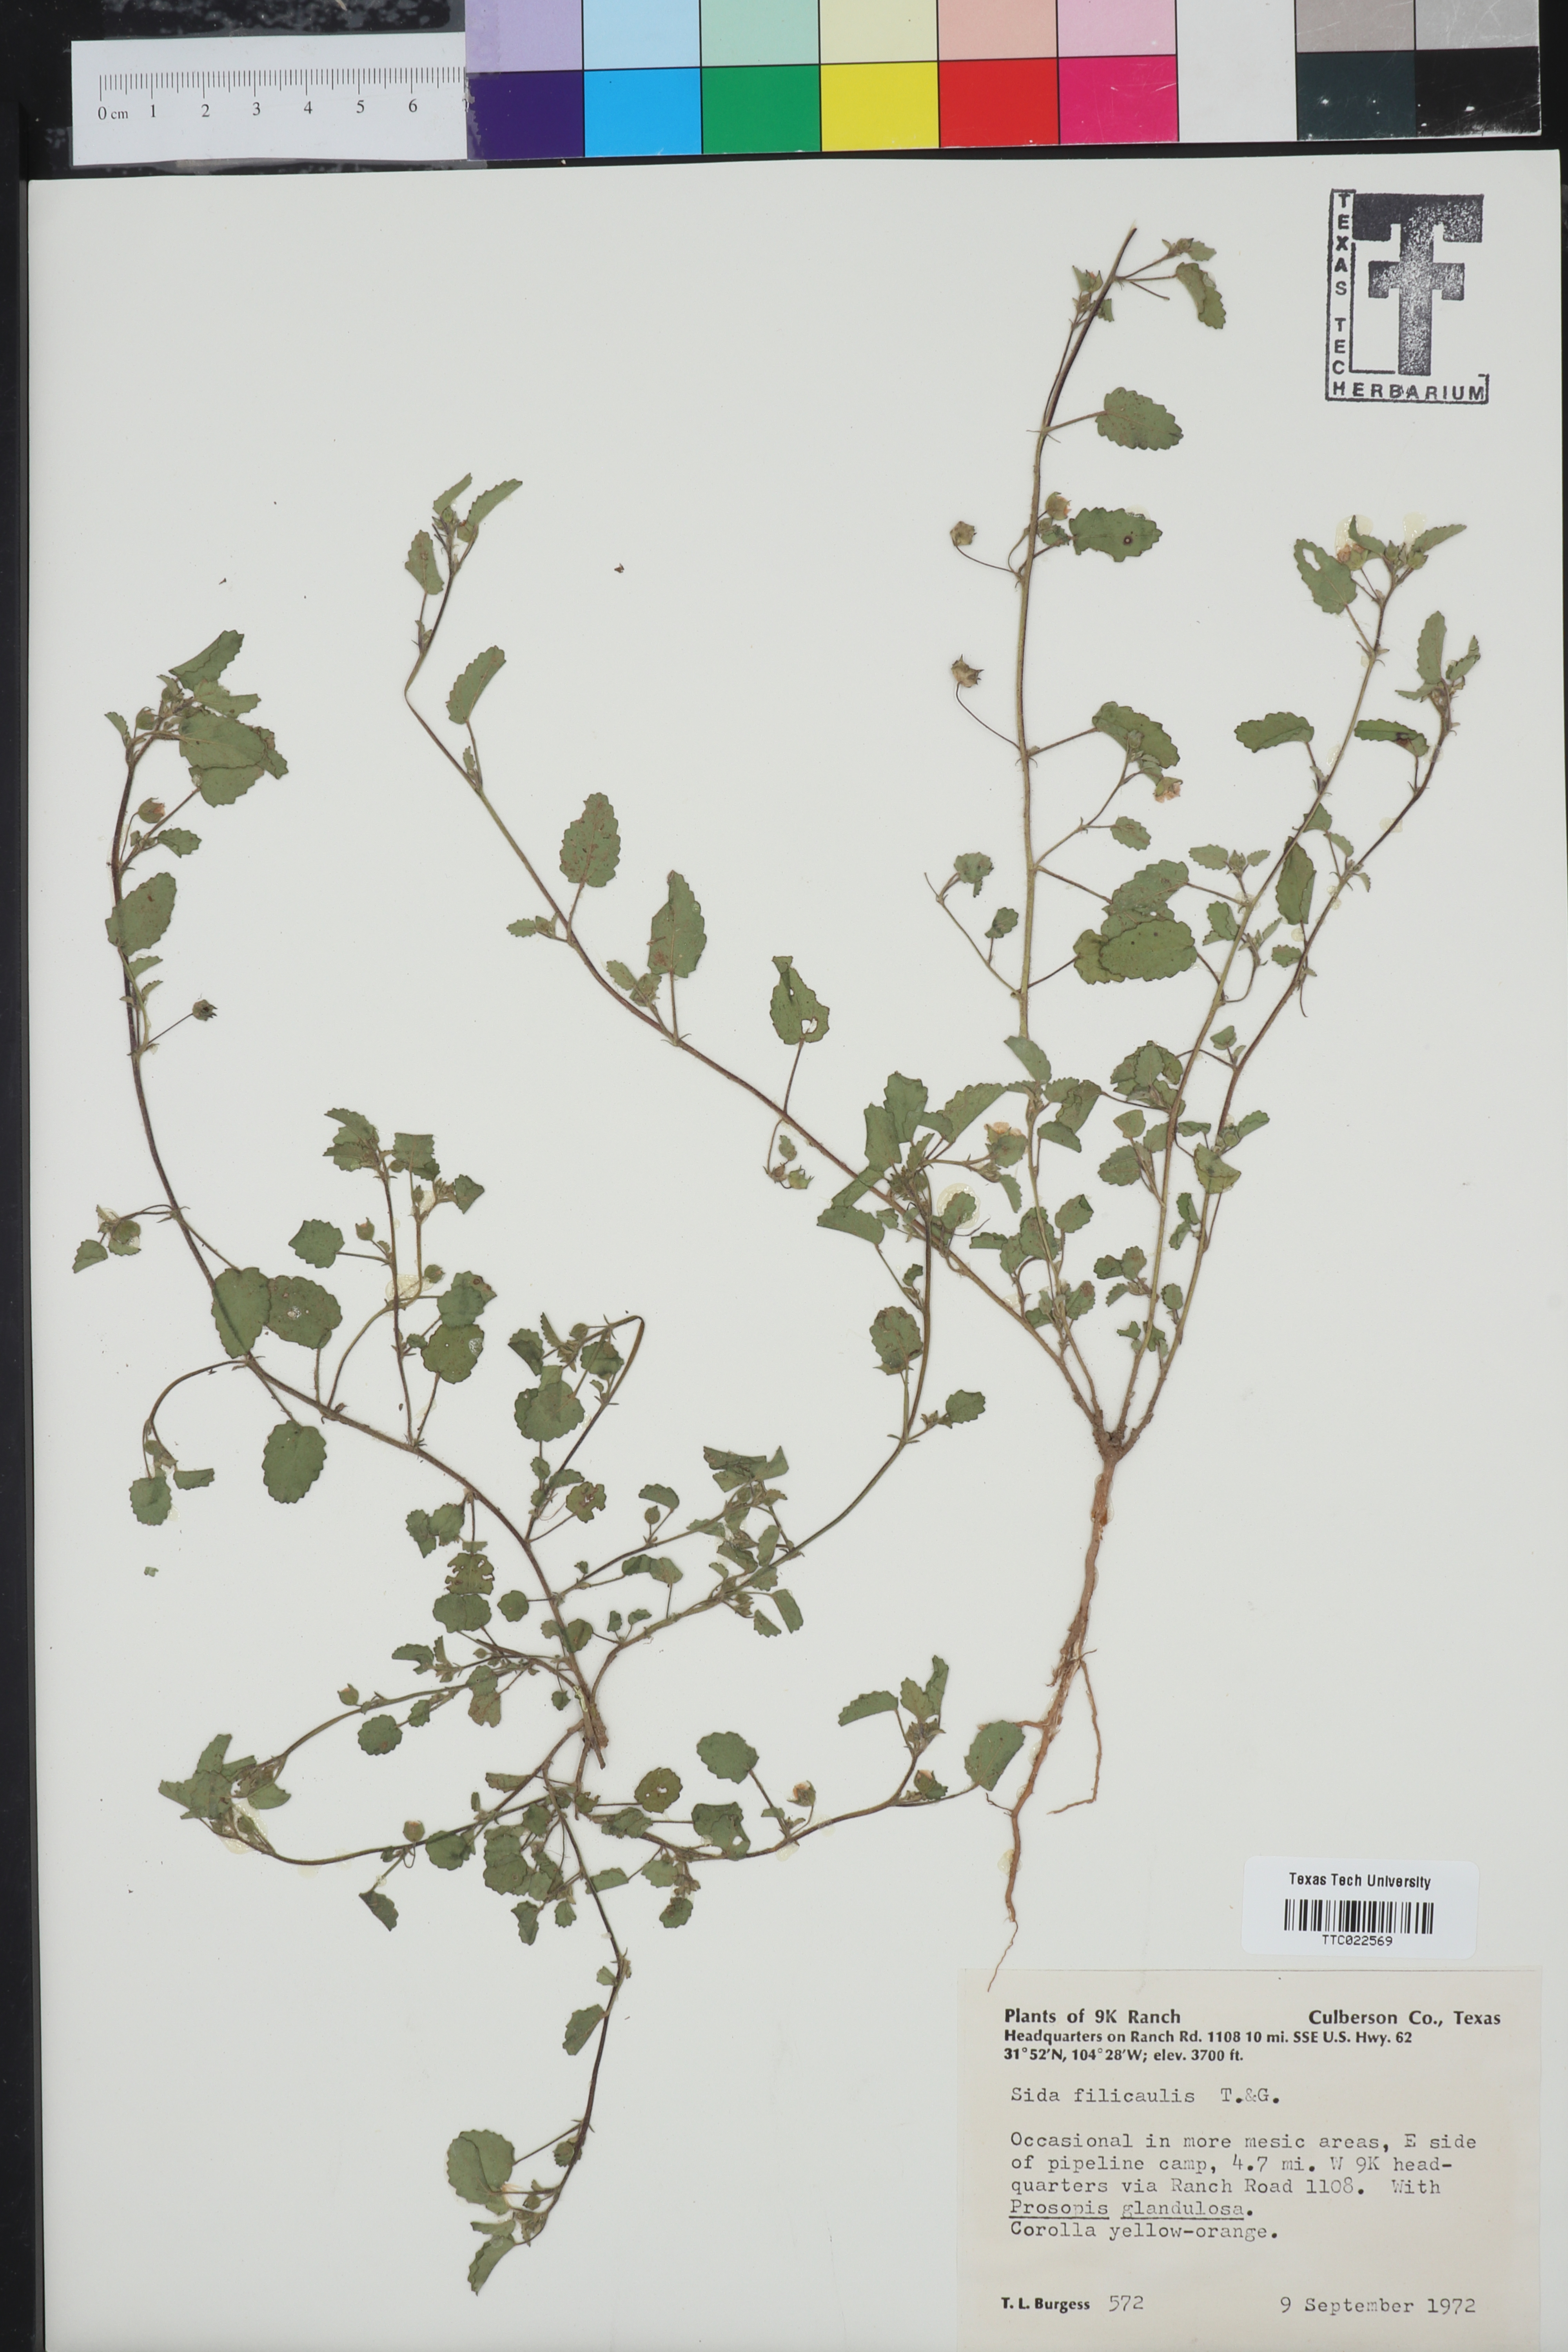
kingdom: Plantae
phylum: Tracheophyta
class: Magnoliopsida
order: Malvales
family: Malvaceae
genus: Sida
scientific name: Sida abutilifolia
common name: Spreading fanpetals
